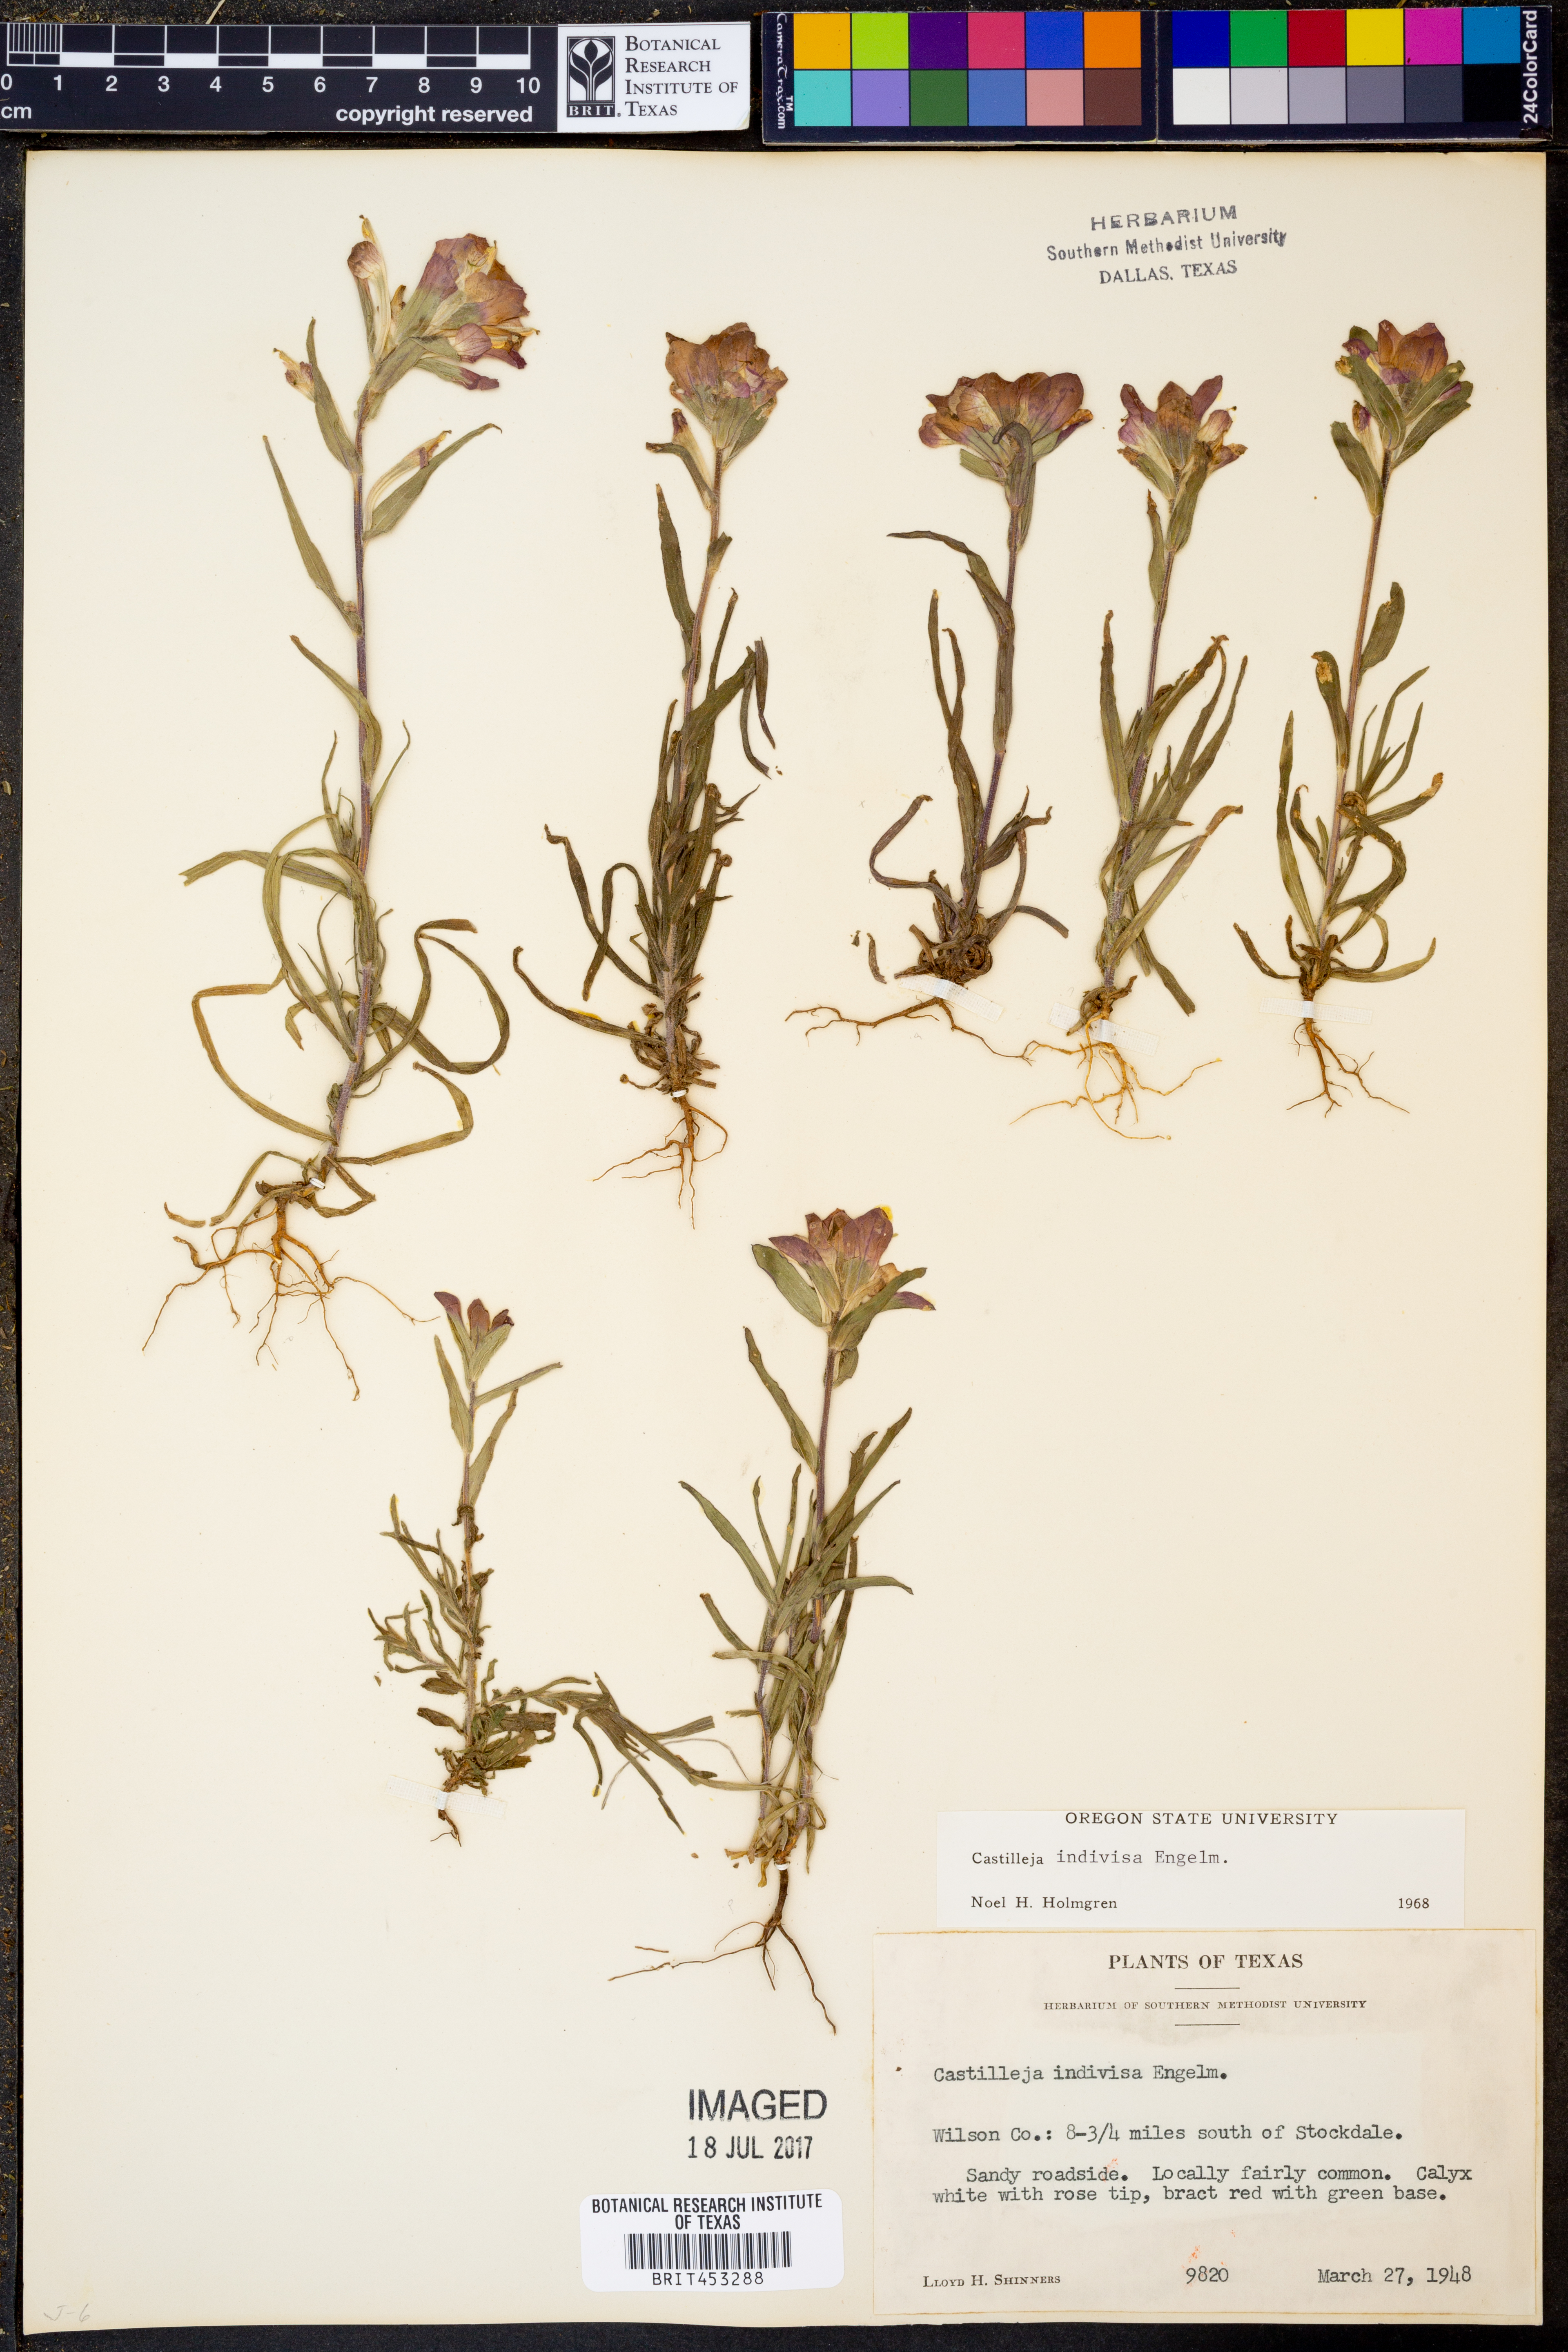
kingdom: Plantae
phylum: Tracheophyta
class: Magnoliopsida
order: Lamiales
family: Orobanchaceae
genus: Castilleja
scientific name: Castilleja indivisa
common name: Texas paintbrush
